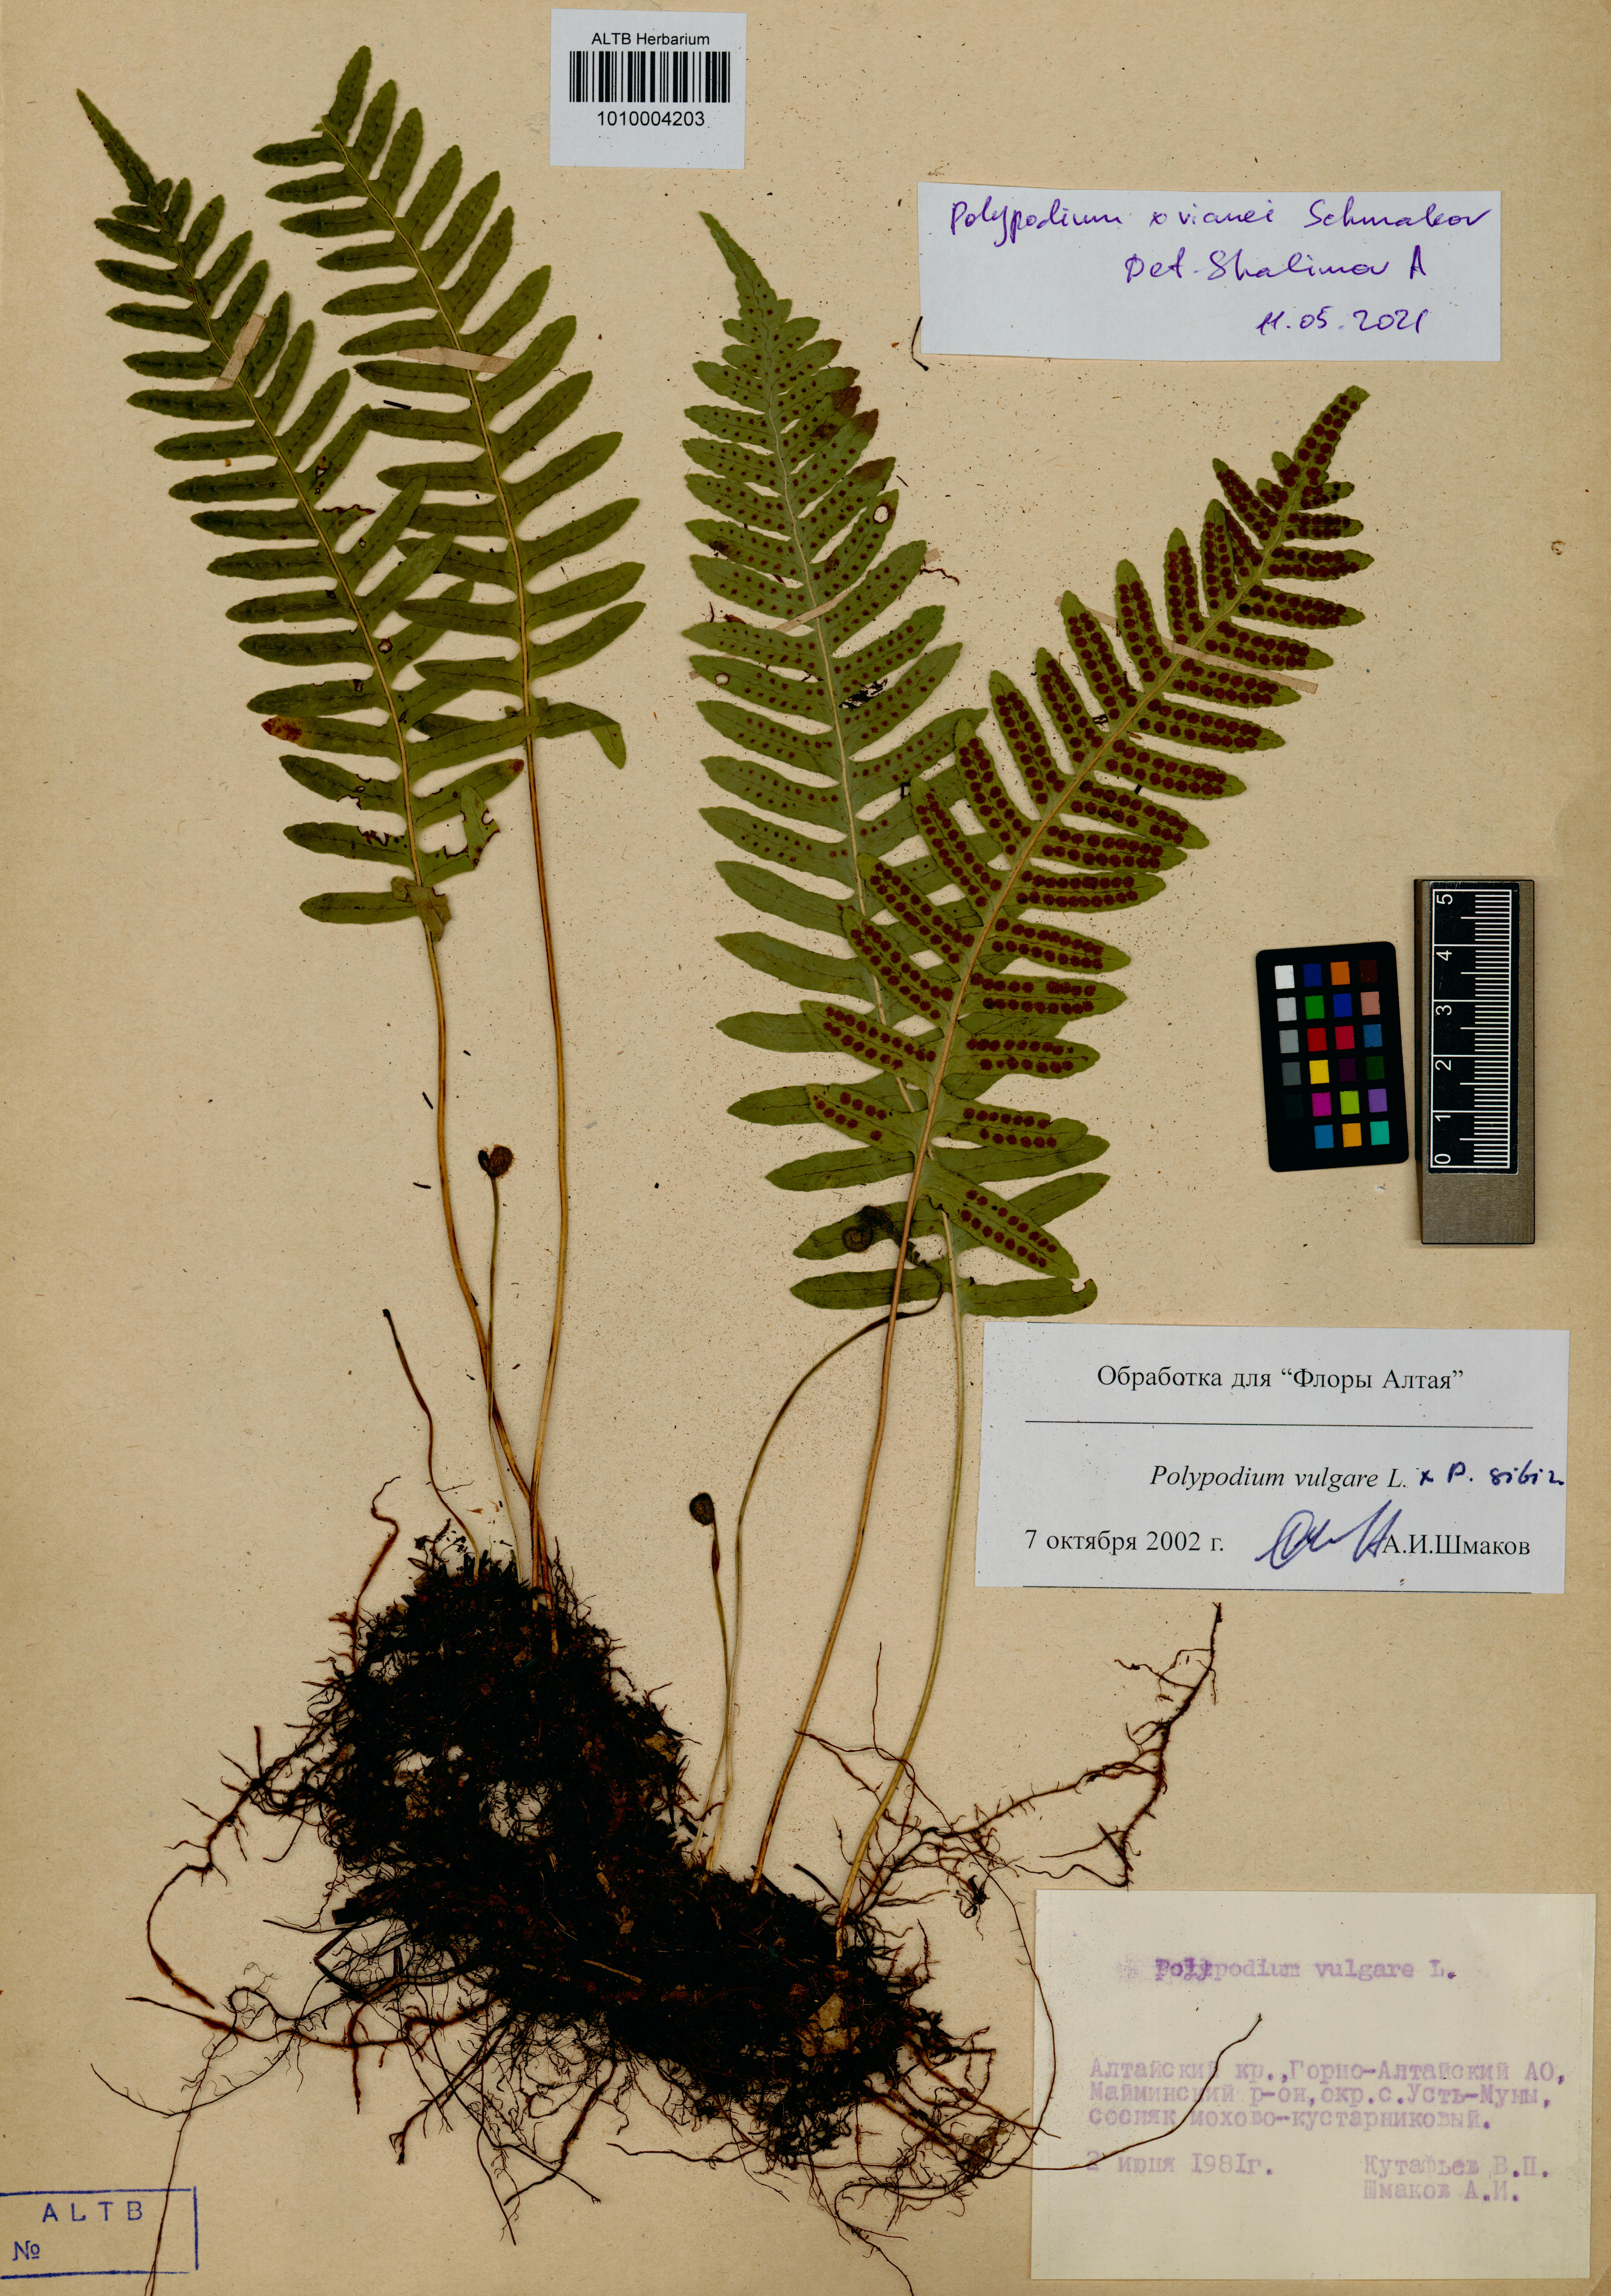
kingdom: Plantae
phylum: Tracheophyta
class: Polypodiopsida
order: Polypodiales
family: Polypodiaceae
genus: Polypodium
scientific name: Polypodium vianei
